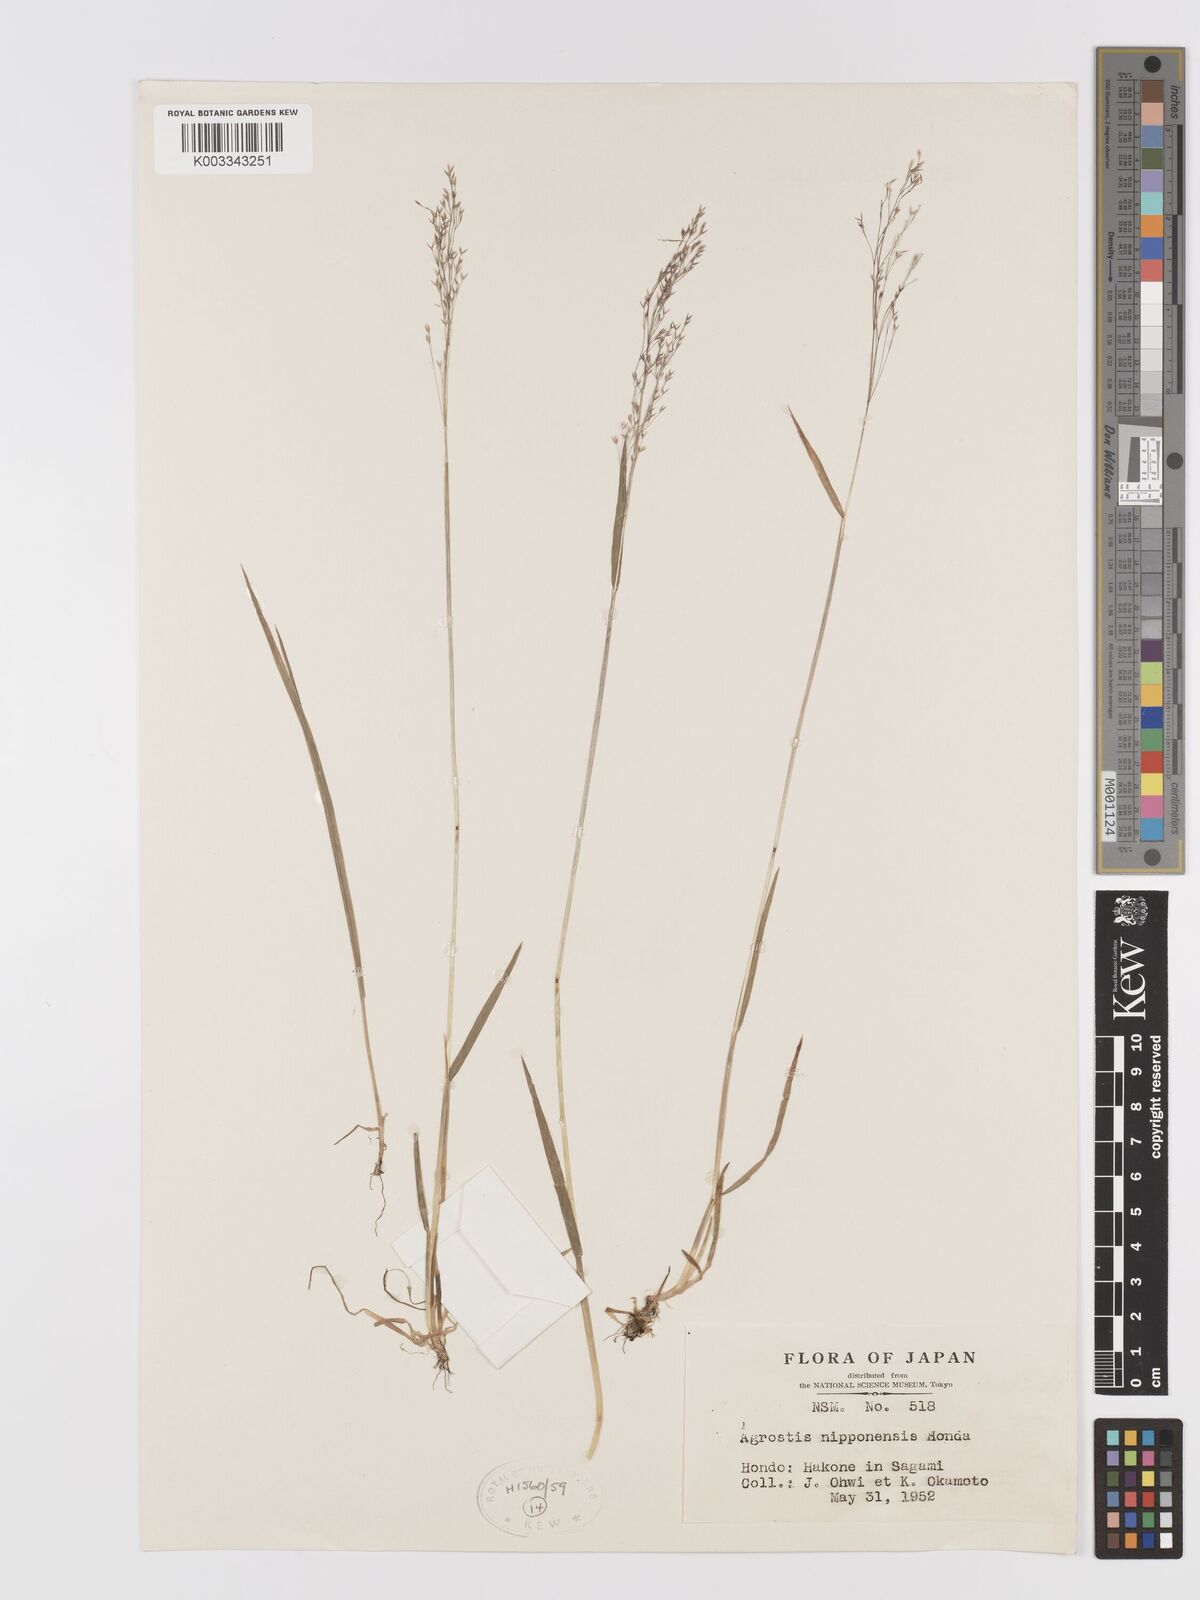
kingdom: Plantae
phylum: Tracheophyta
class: Liliopsida
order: Poales
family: Poaceae
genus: Agrostis
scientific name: Agrostis valvata
